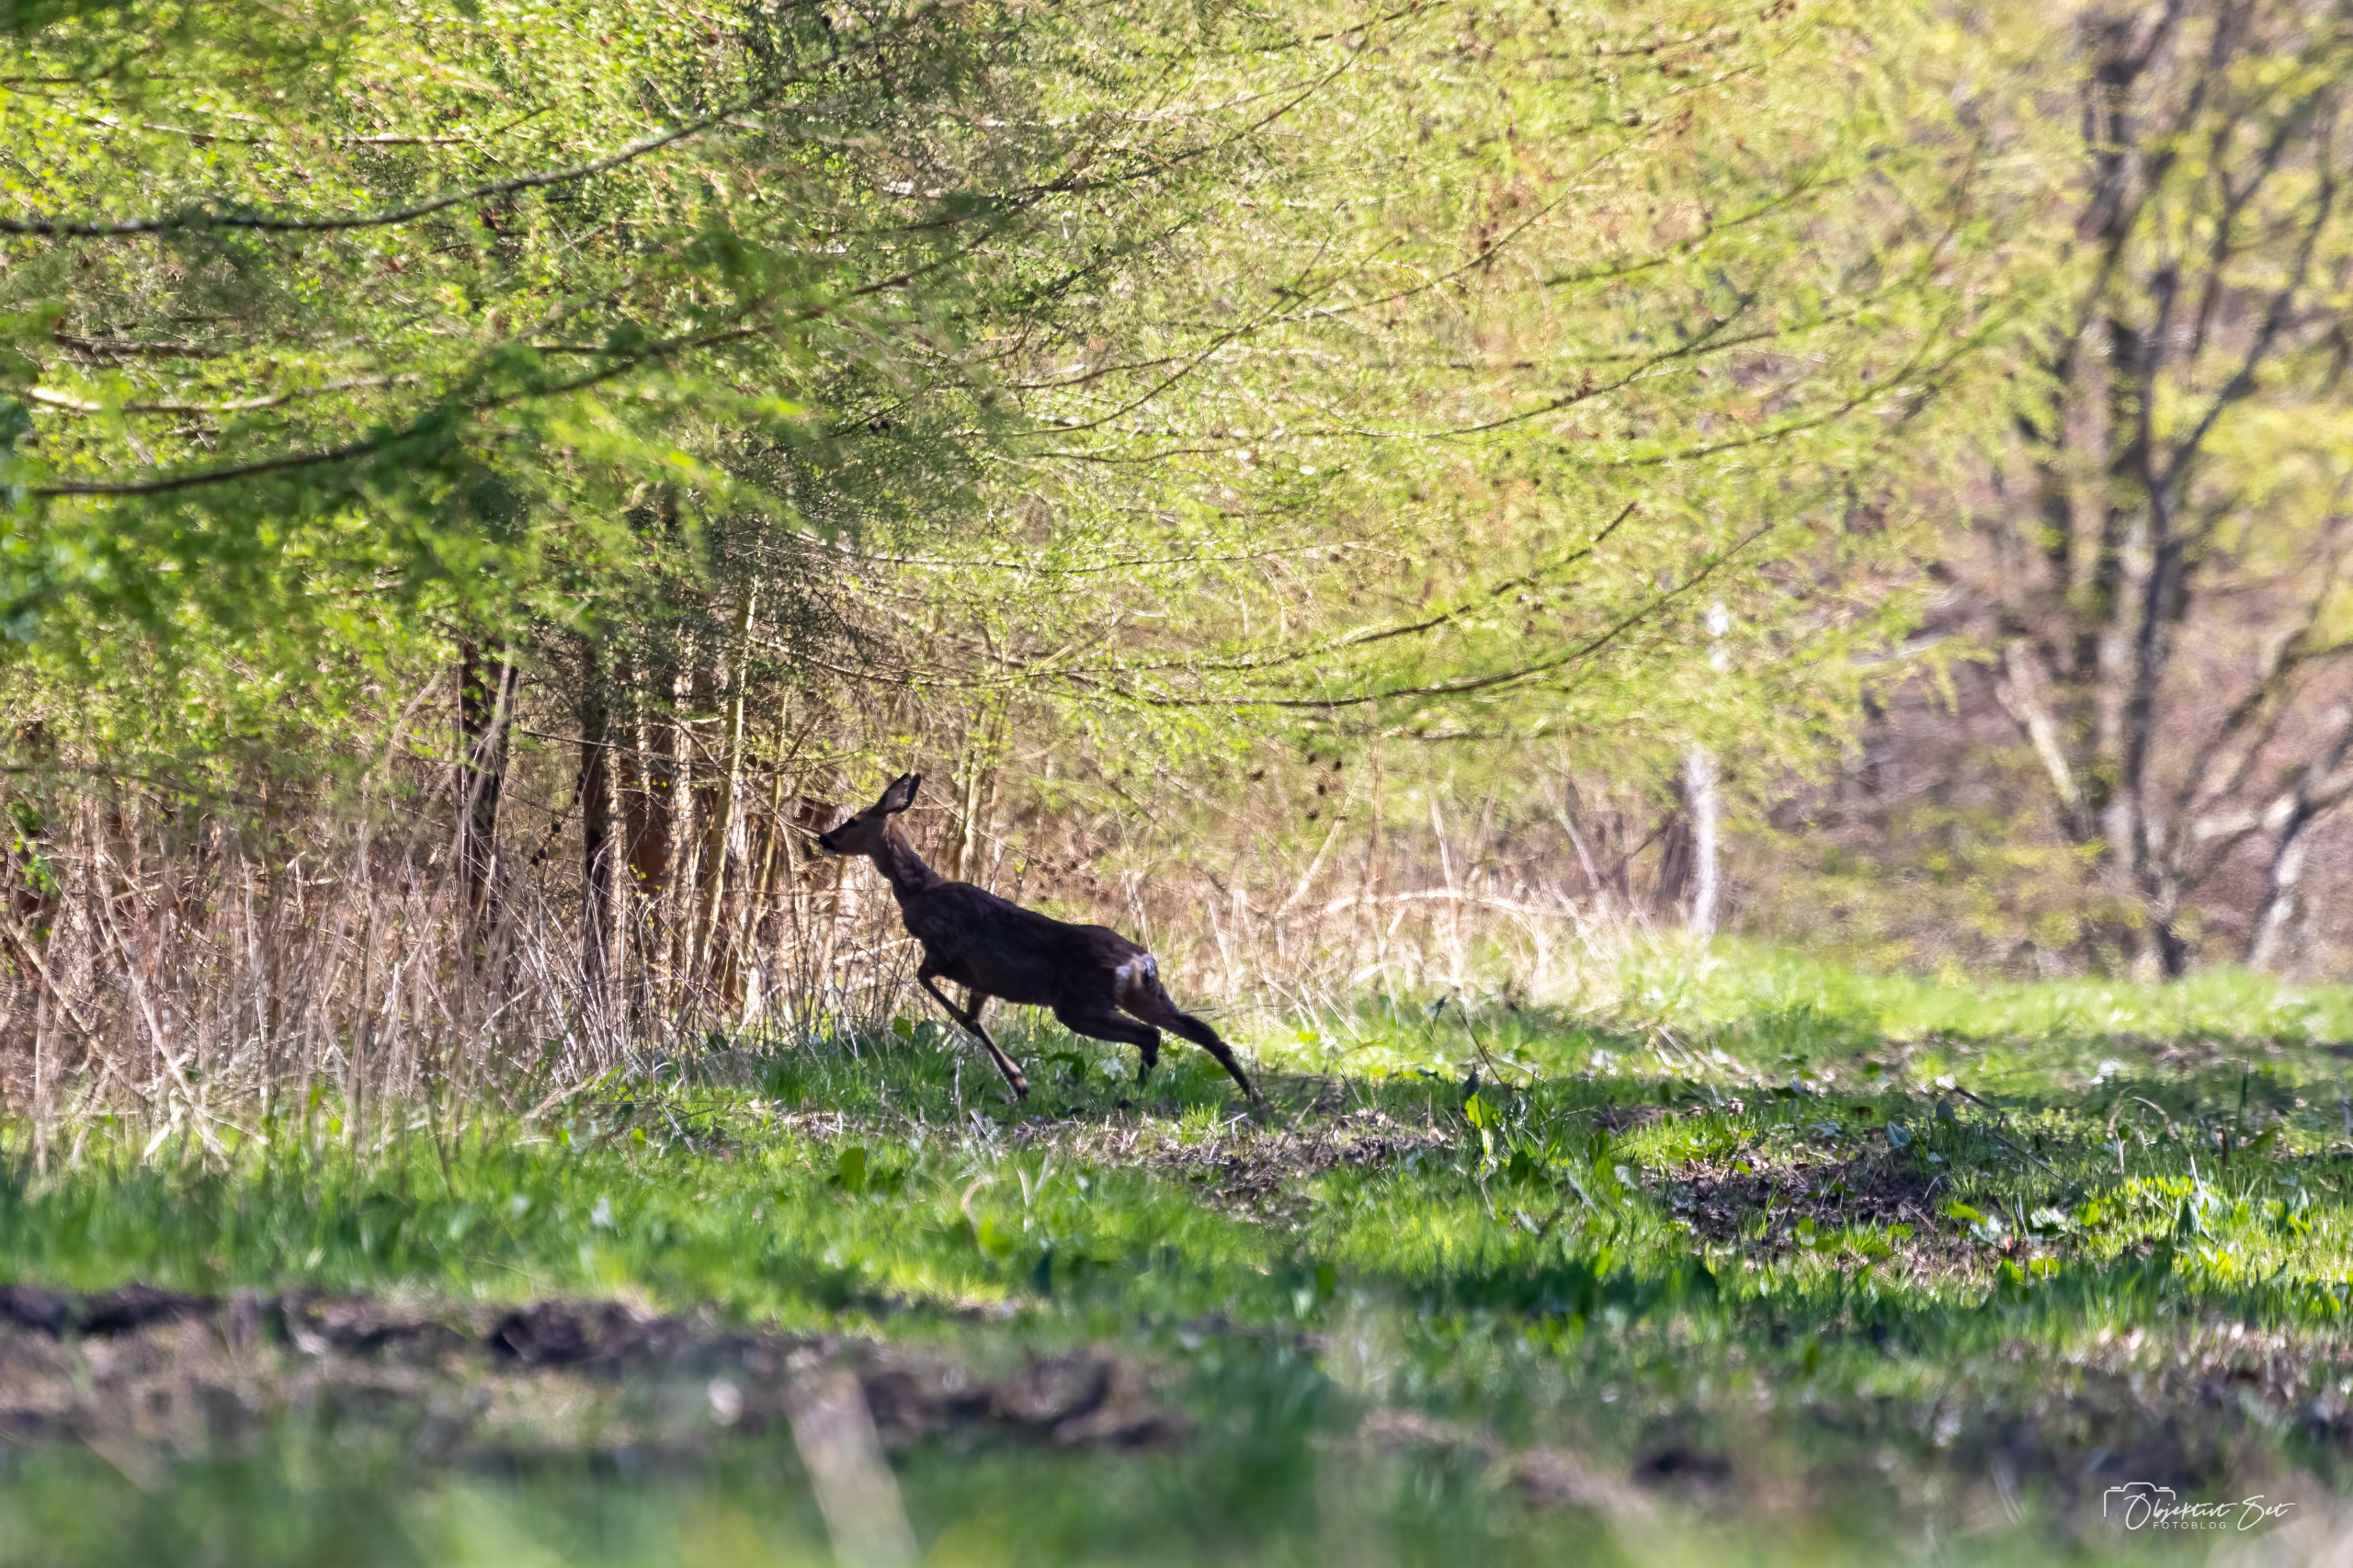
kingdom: Animalia
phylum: Chordata
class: Mammalia
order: Artiodactyla
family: Cervidae
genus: Capreolus
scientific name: Capreolus capreolus
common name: Rådyr
